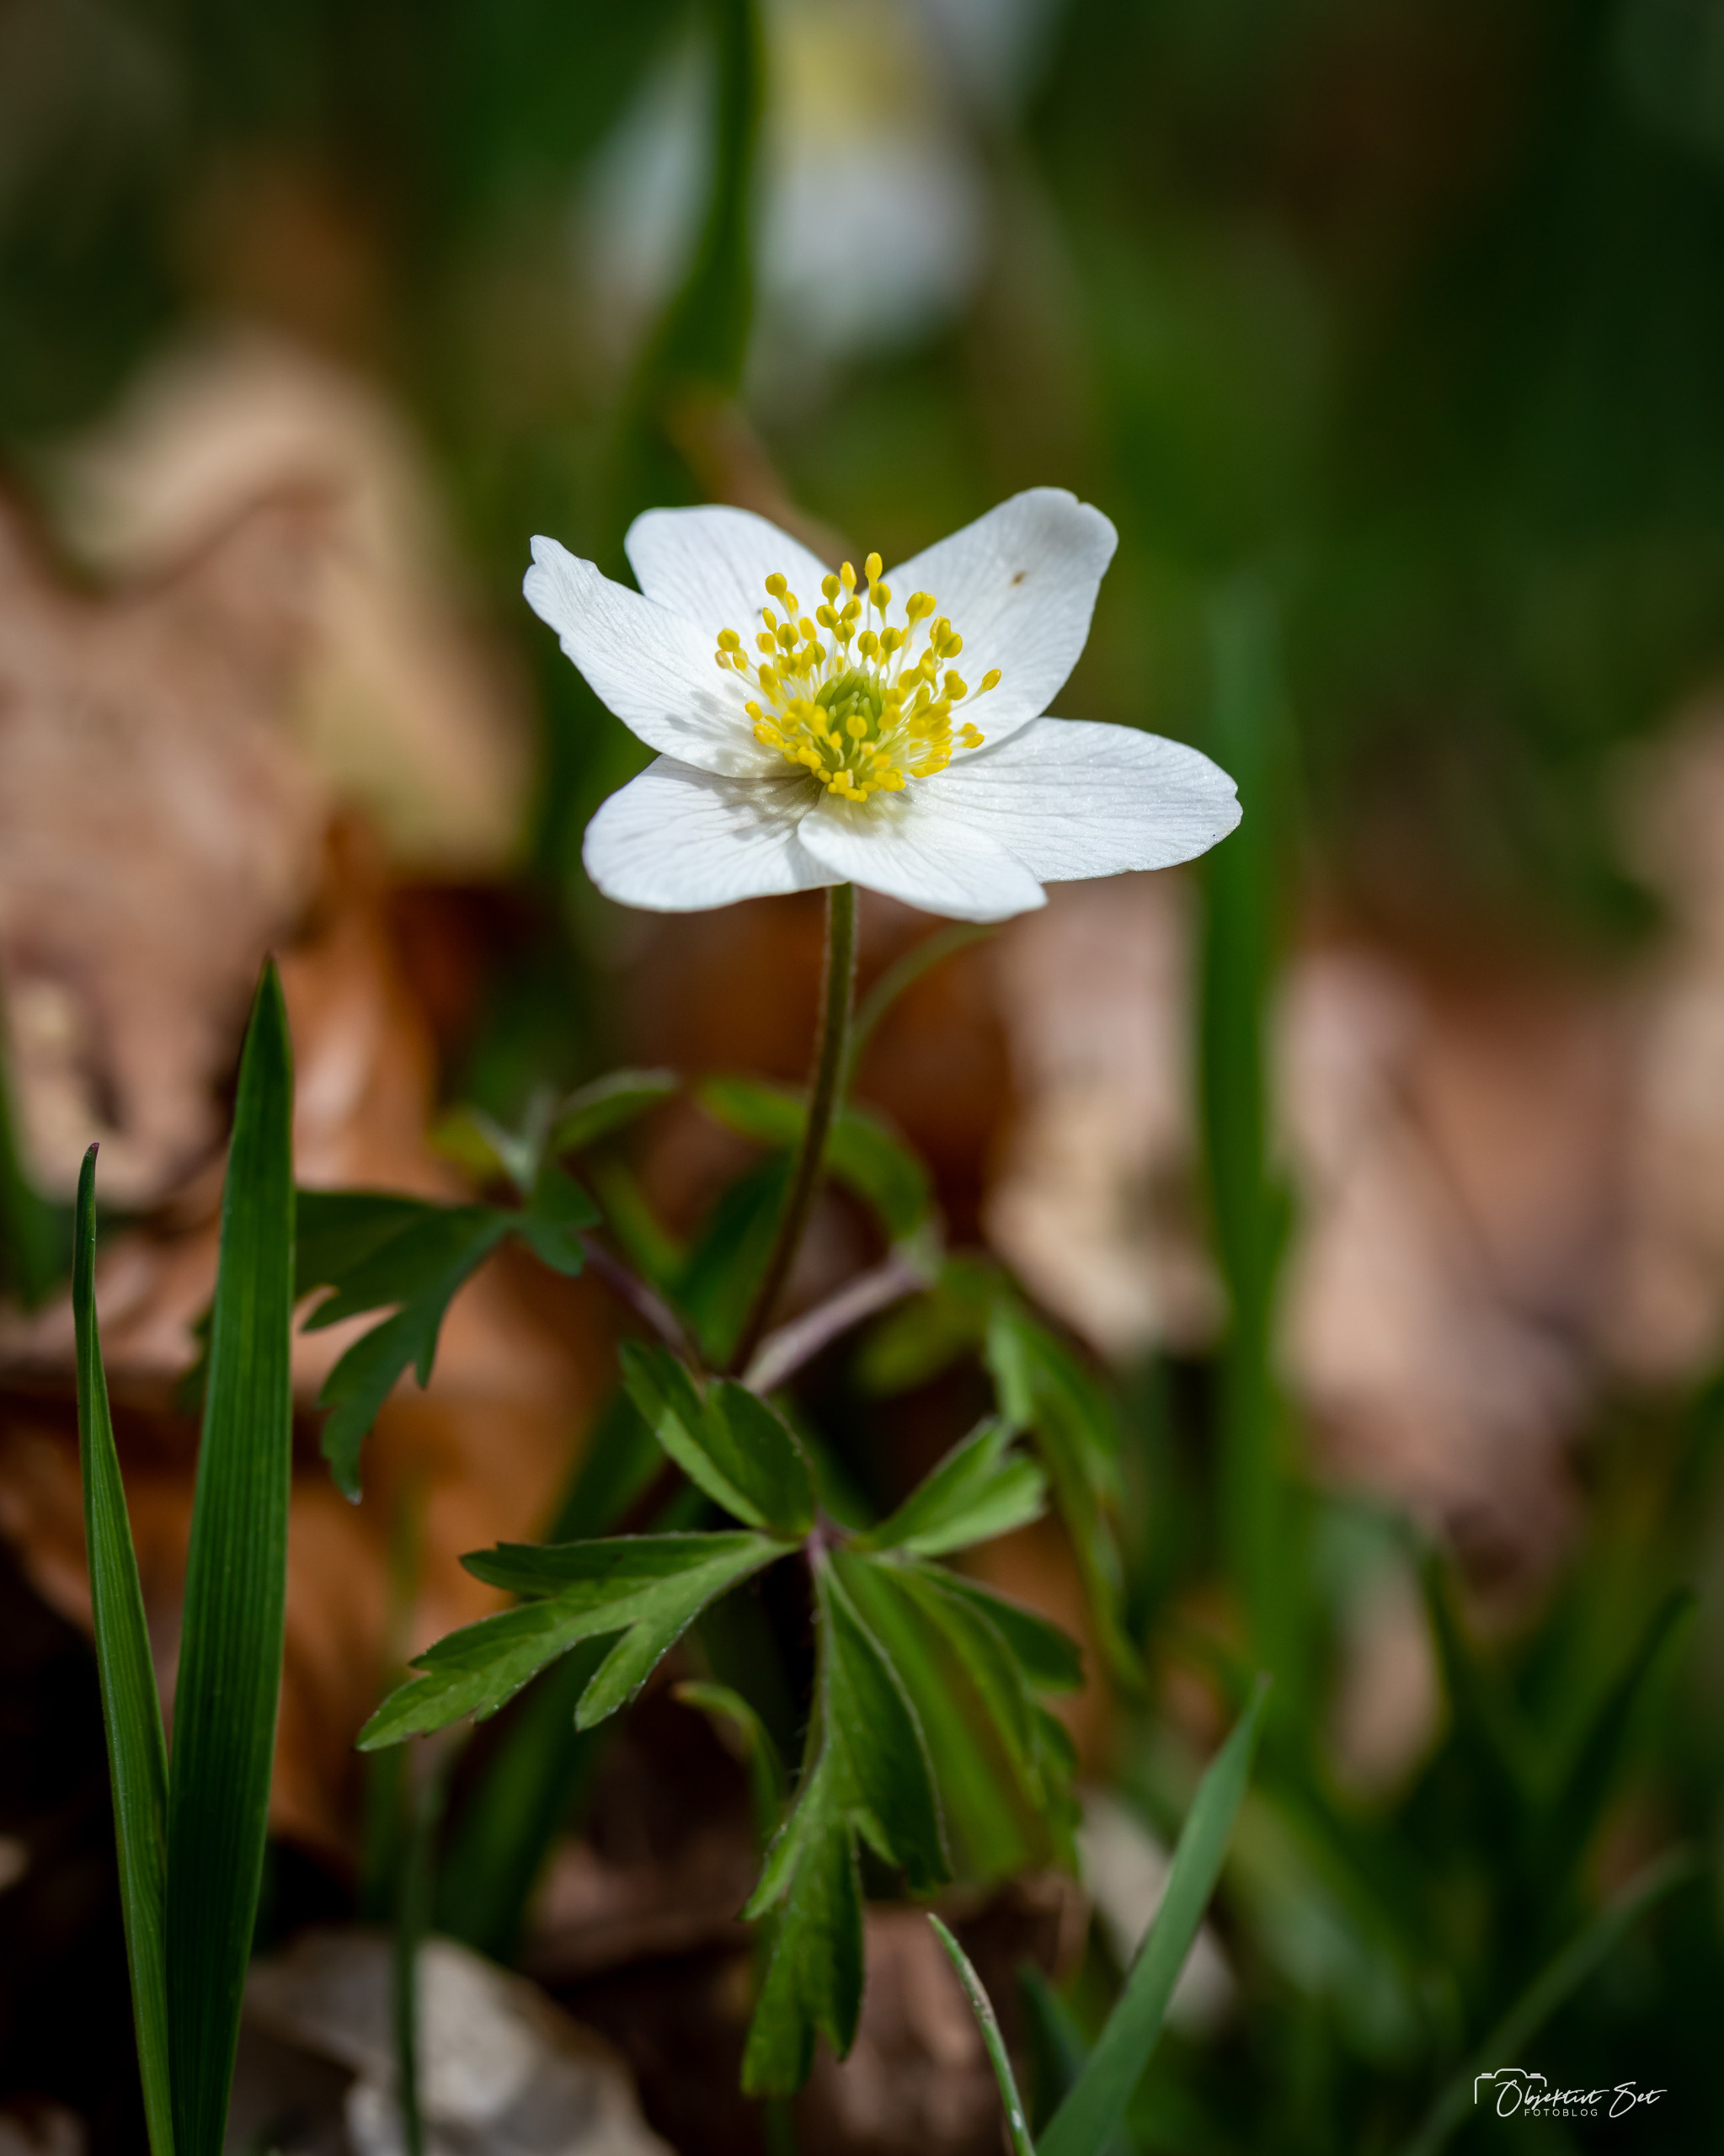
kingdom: Plantae
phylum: Tracheophyta
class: Magnoliopsida
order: Ranunculales
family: Ranunculaceae
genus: Anemone
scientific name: Anemone nemorosa
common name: Hvid anemone
